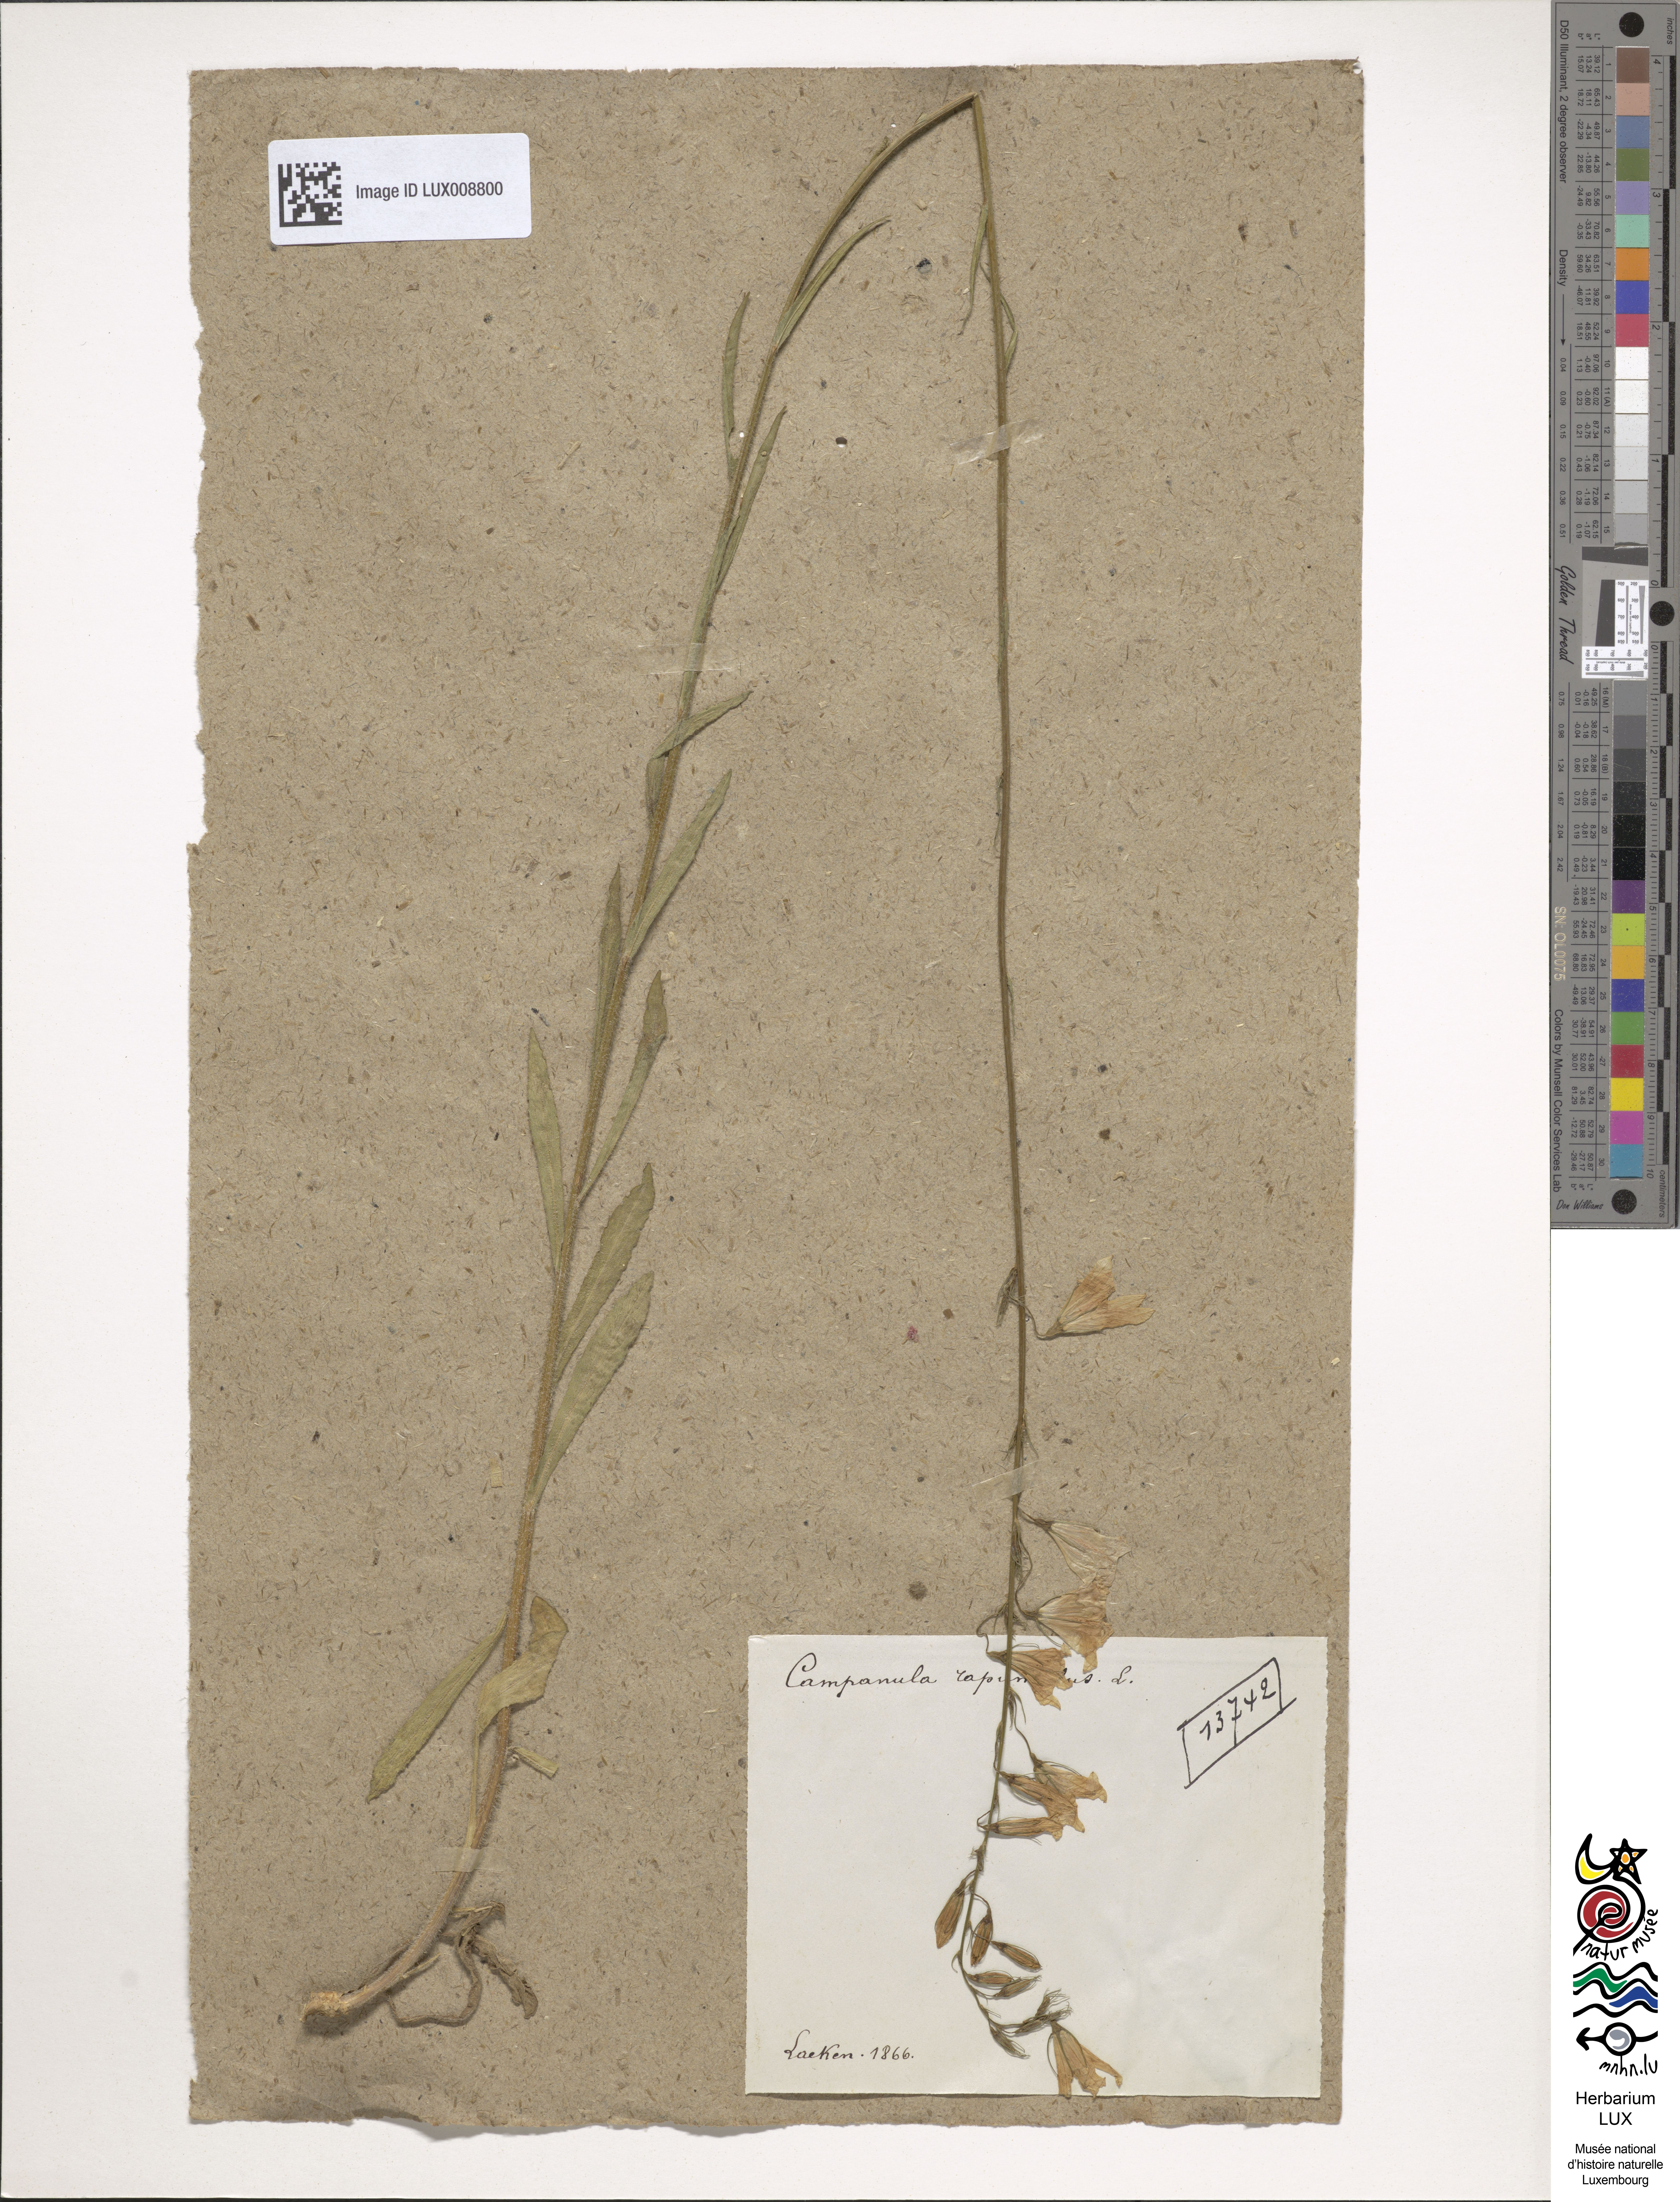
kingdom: Plantae
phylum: Tracheophyta
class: Magnoliopsida
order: Asterales
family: Campanulaceae
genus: Campanula
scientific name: Campanula rapunculus
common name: Rampion bellflower
